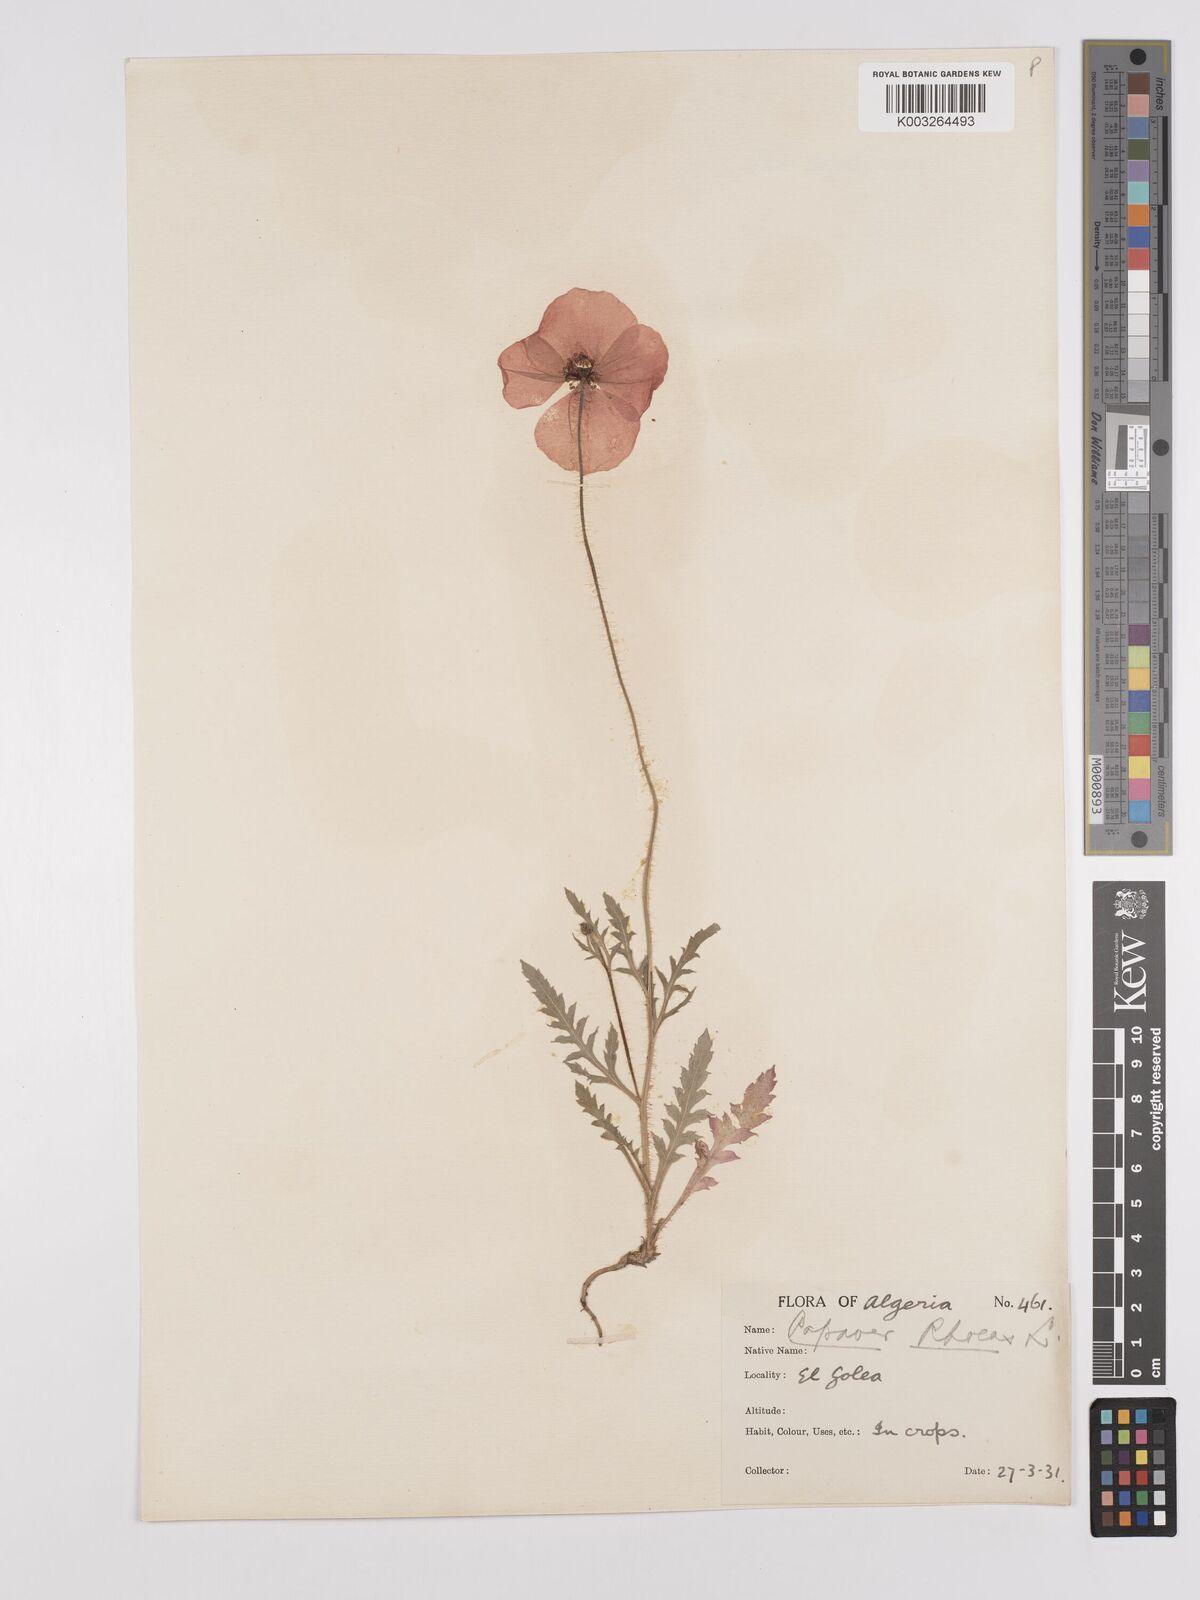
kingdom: Plantae
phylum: Tracheophyta
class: Magnoliopsida
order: Ranunculales
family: Papaveraceae
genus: Papaver
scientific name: Papaver rhoeas
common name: Corn poppy
